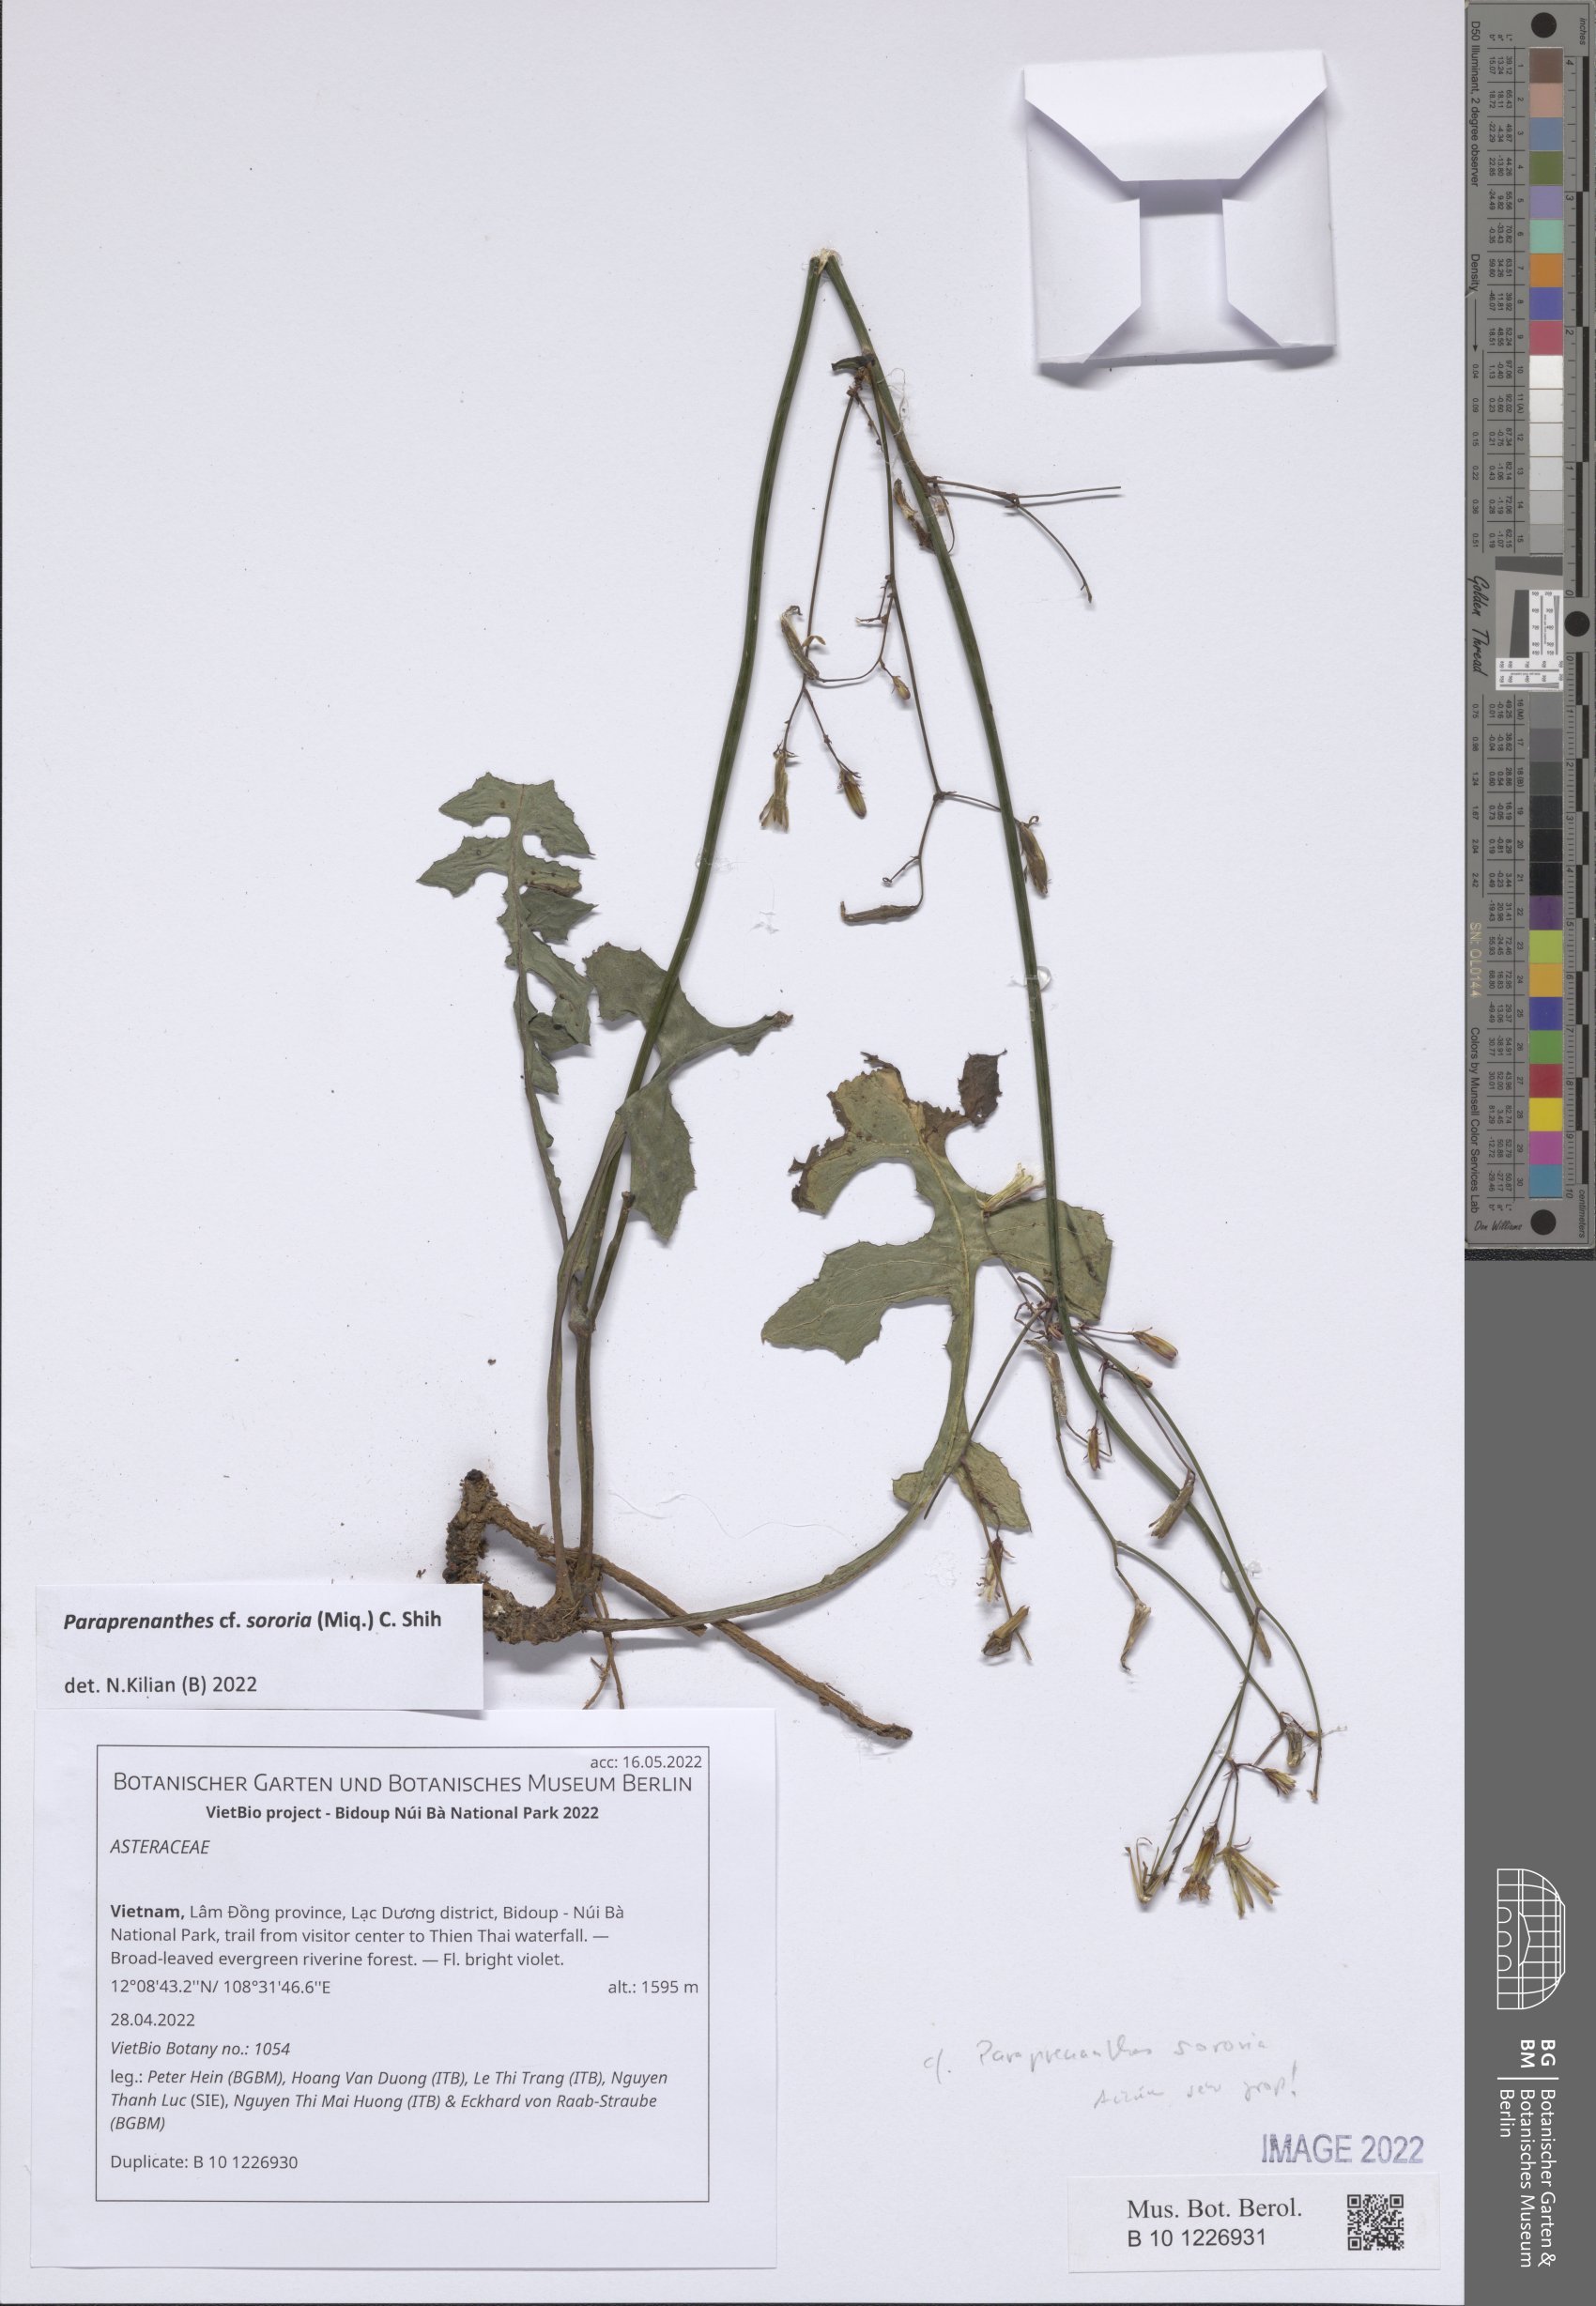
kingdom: Plantae
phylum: Tracheophyta
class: Magnoliopsida
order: Asterales
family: Asteraceae
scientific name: Asteraceae
